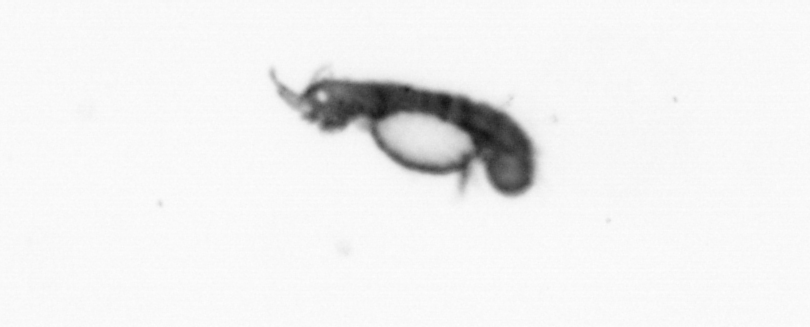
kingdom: Animalia
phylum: Annelida
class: Polychaeta
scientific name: Polychaeta
